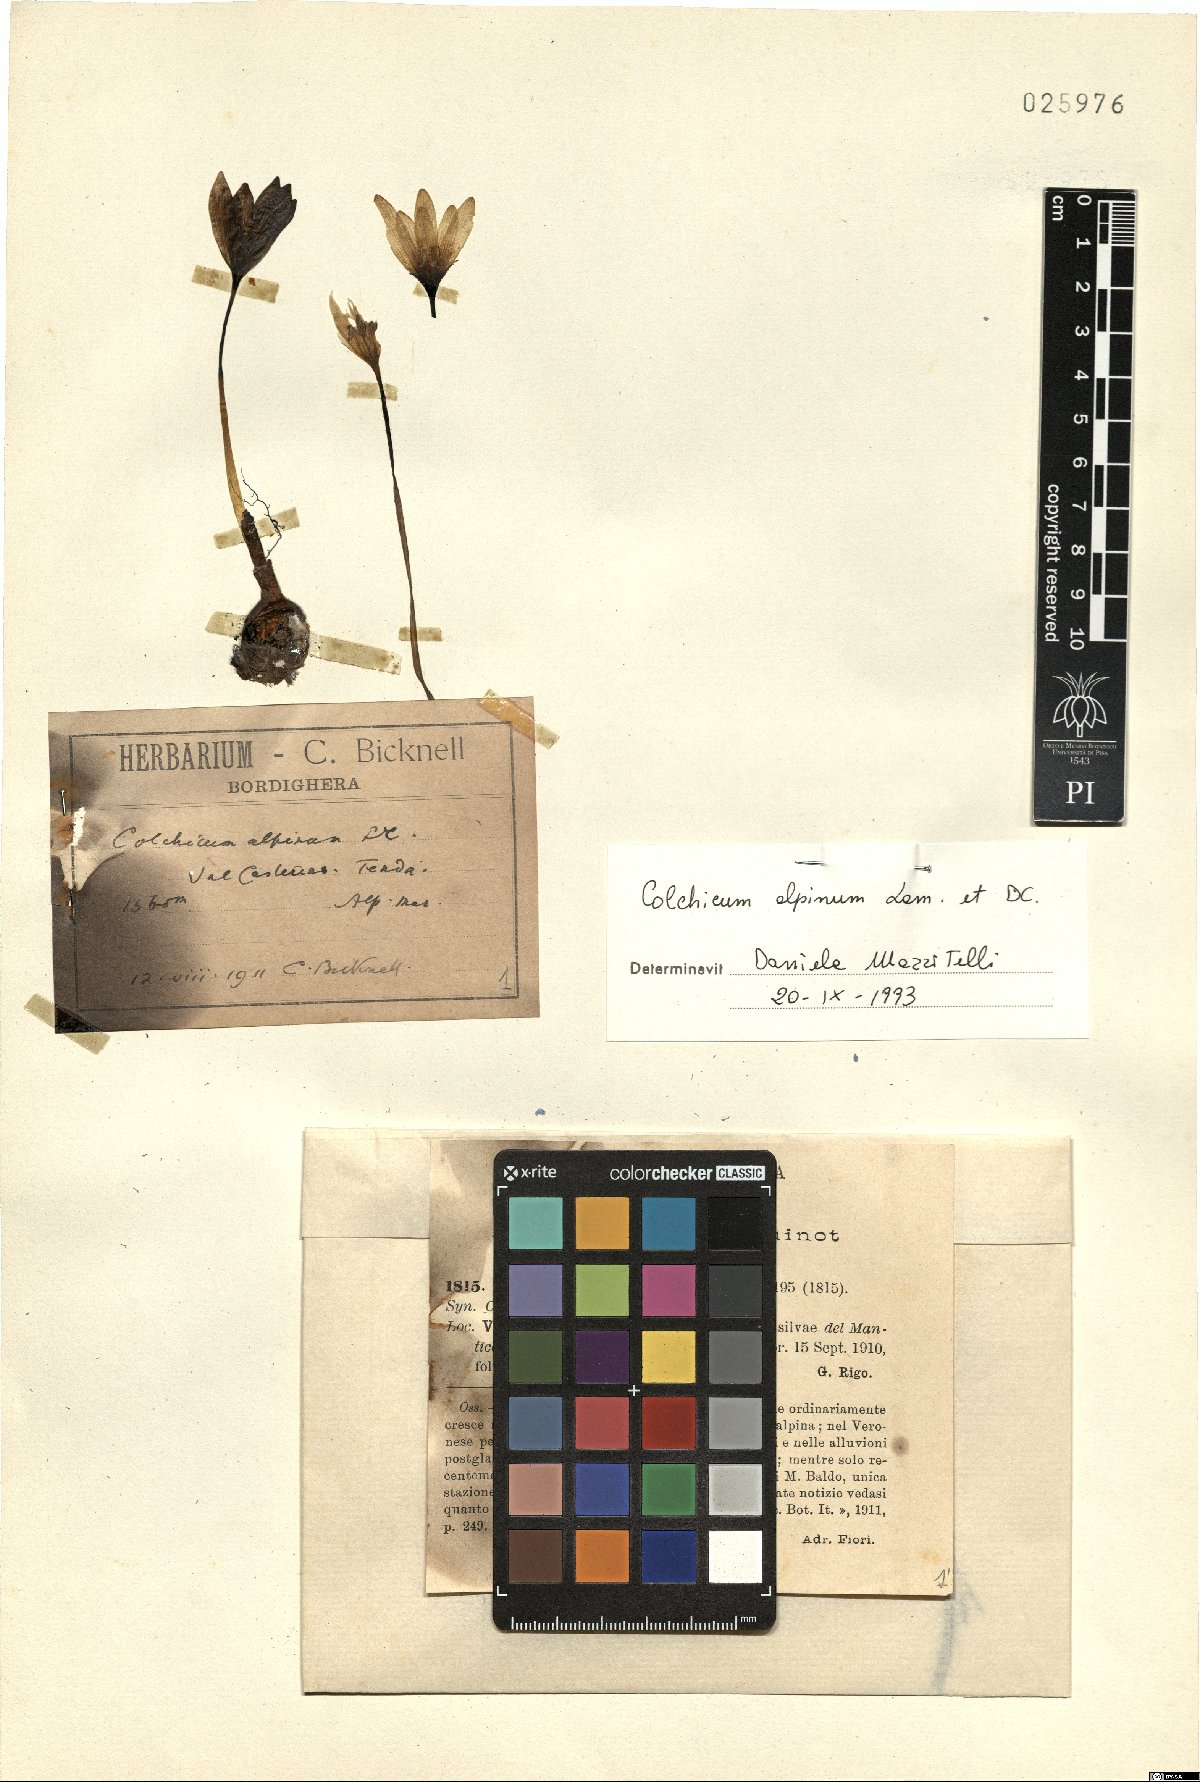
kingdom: Plantae
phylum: Tracheophyta
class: Liliopsida
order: Liliales
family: Colchicaceae
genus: Colchicum
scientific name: Colchicum alpinum
